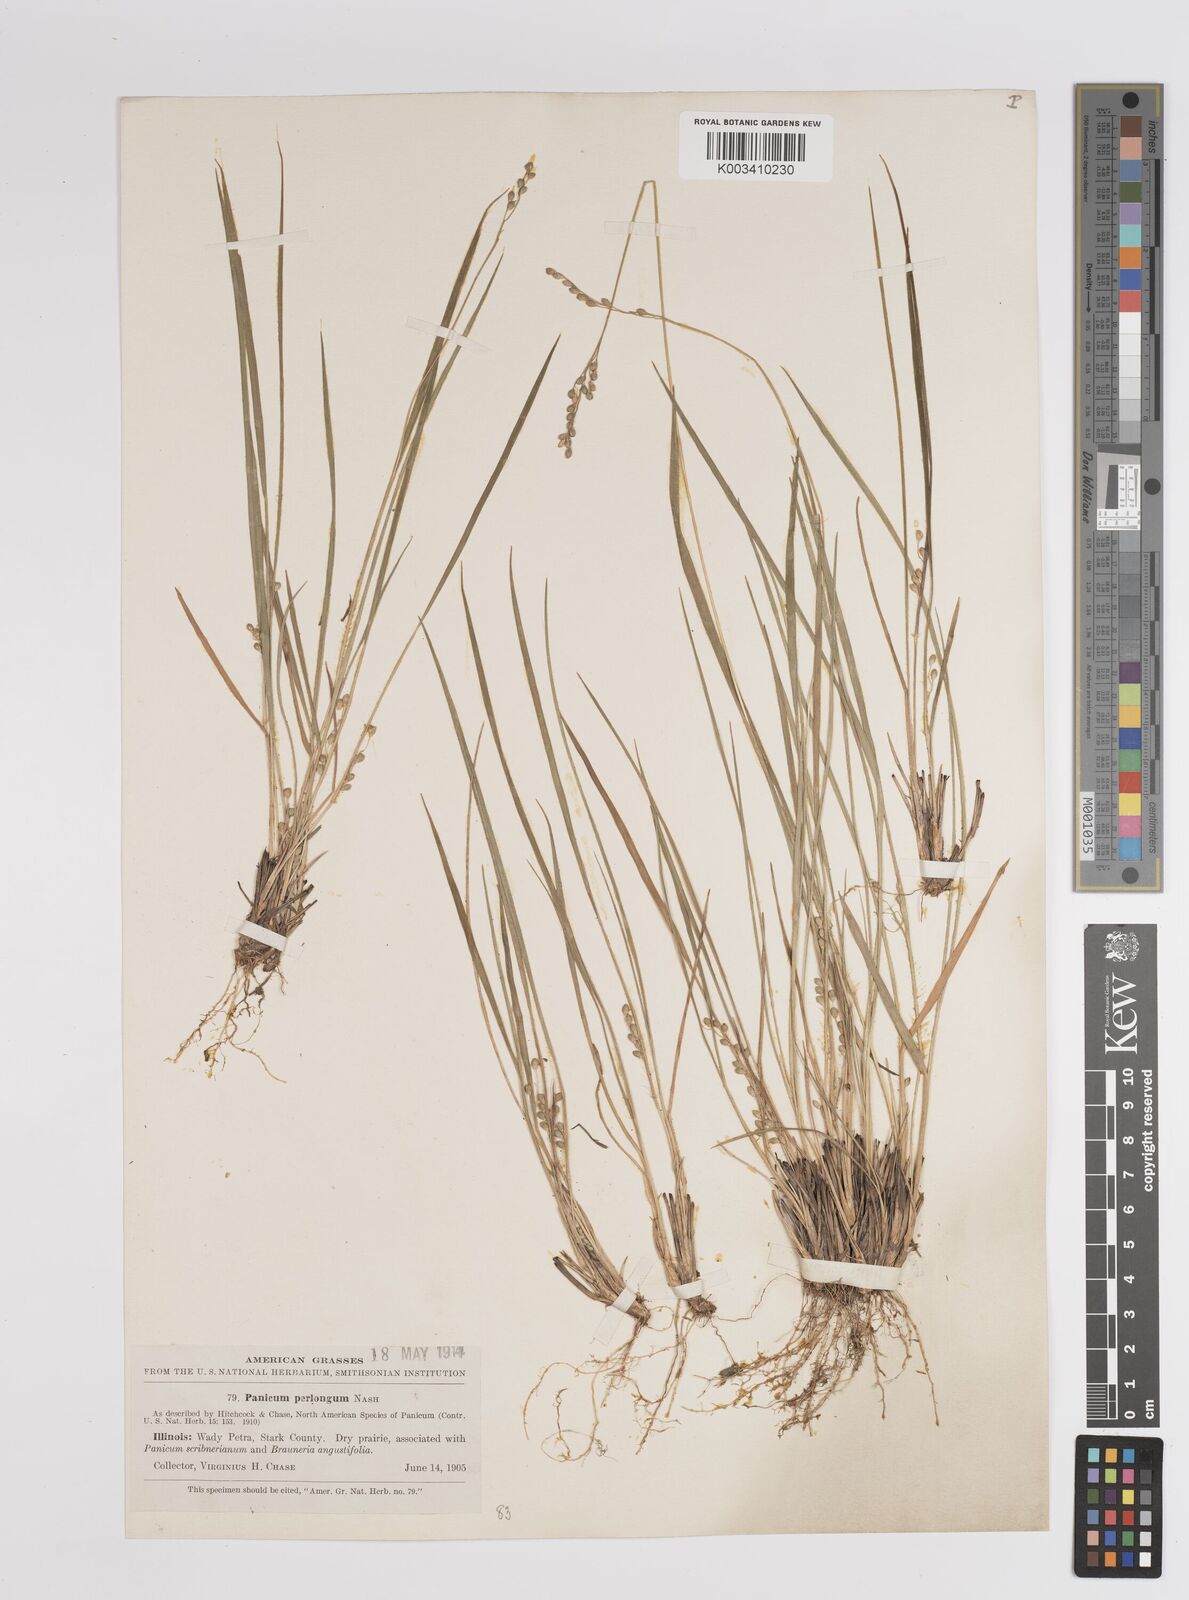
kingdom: Plantae
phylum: Tracheophyta
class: Liliopsida
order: Poales
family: Poaceae
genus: Dichanthelium
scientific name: Dichanthelium linearifolium
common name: Linear-leaved panicgrass
